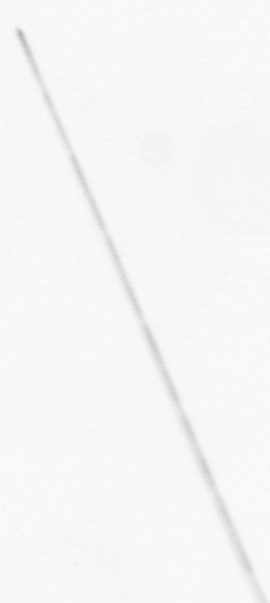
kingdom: Chromista
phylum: Ochrophyta
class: Bacillariophyceae
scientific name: Bacillariophyceae
